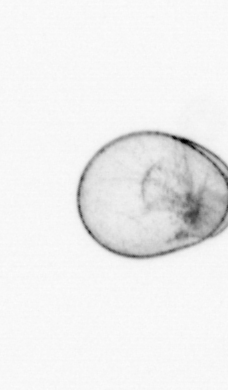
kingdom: Chromista
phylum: Myzozoa
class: Dinophyceae
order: Noctilucales
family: Noctilucaceae
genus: Noctiluca
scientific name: Noctiluca scintillans
